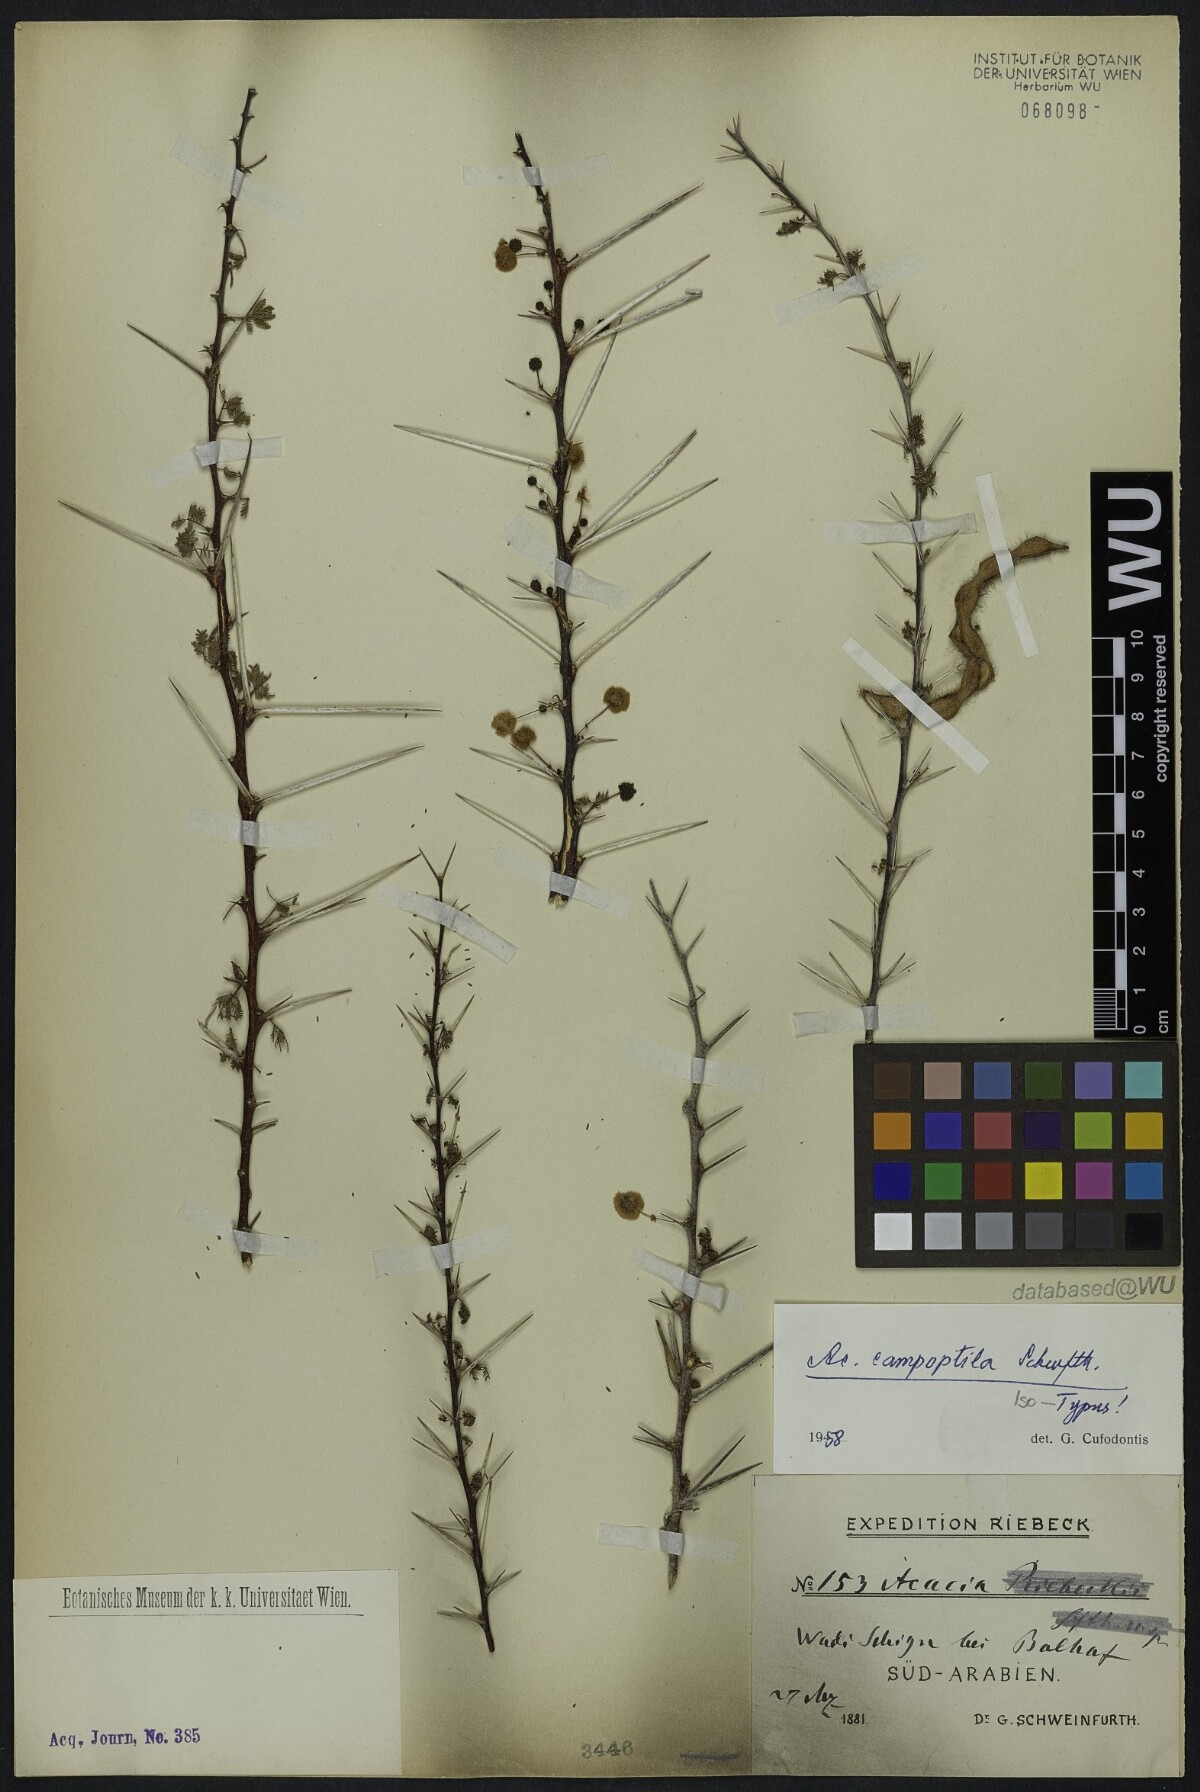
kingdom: Plantae
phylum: Tracheophyta
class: Magnoliopsida
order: Fabales
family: Fabaceae
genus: Vachellia
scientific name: Vachellia tortilis
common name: Umbrella thorn acacia
